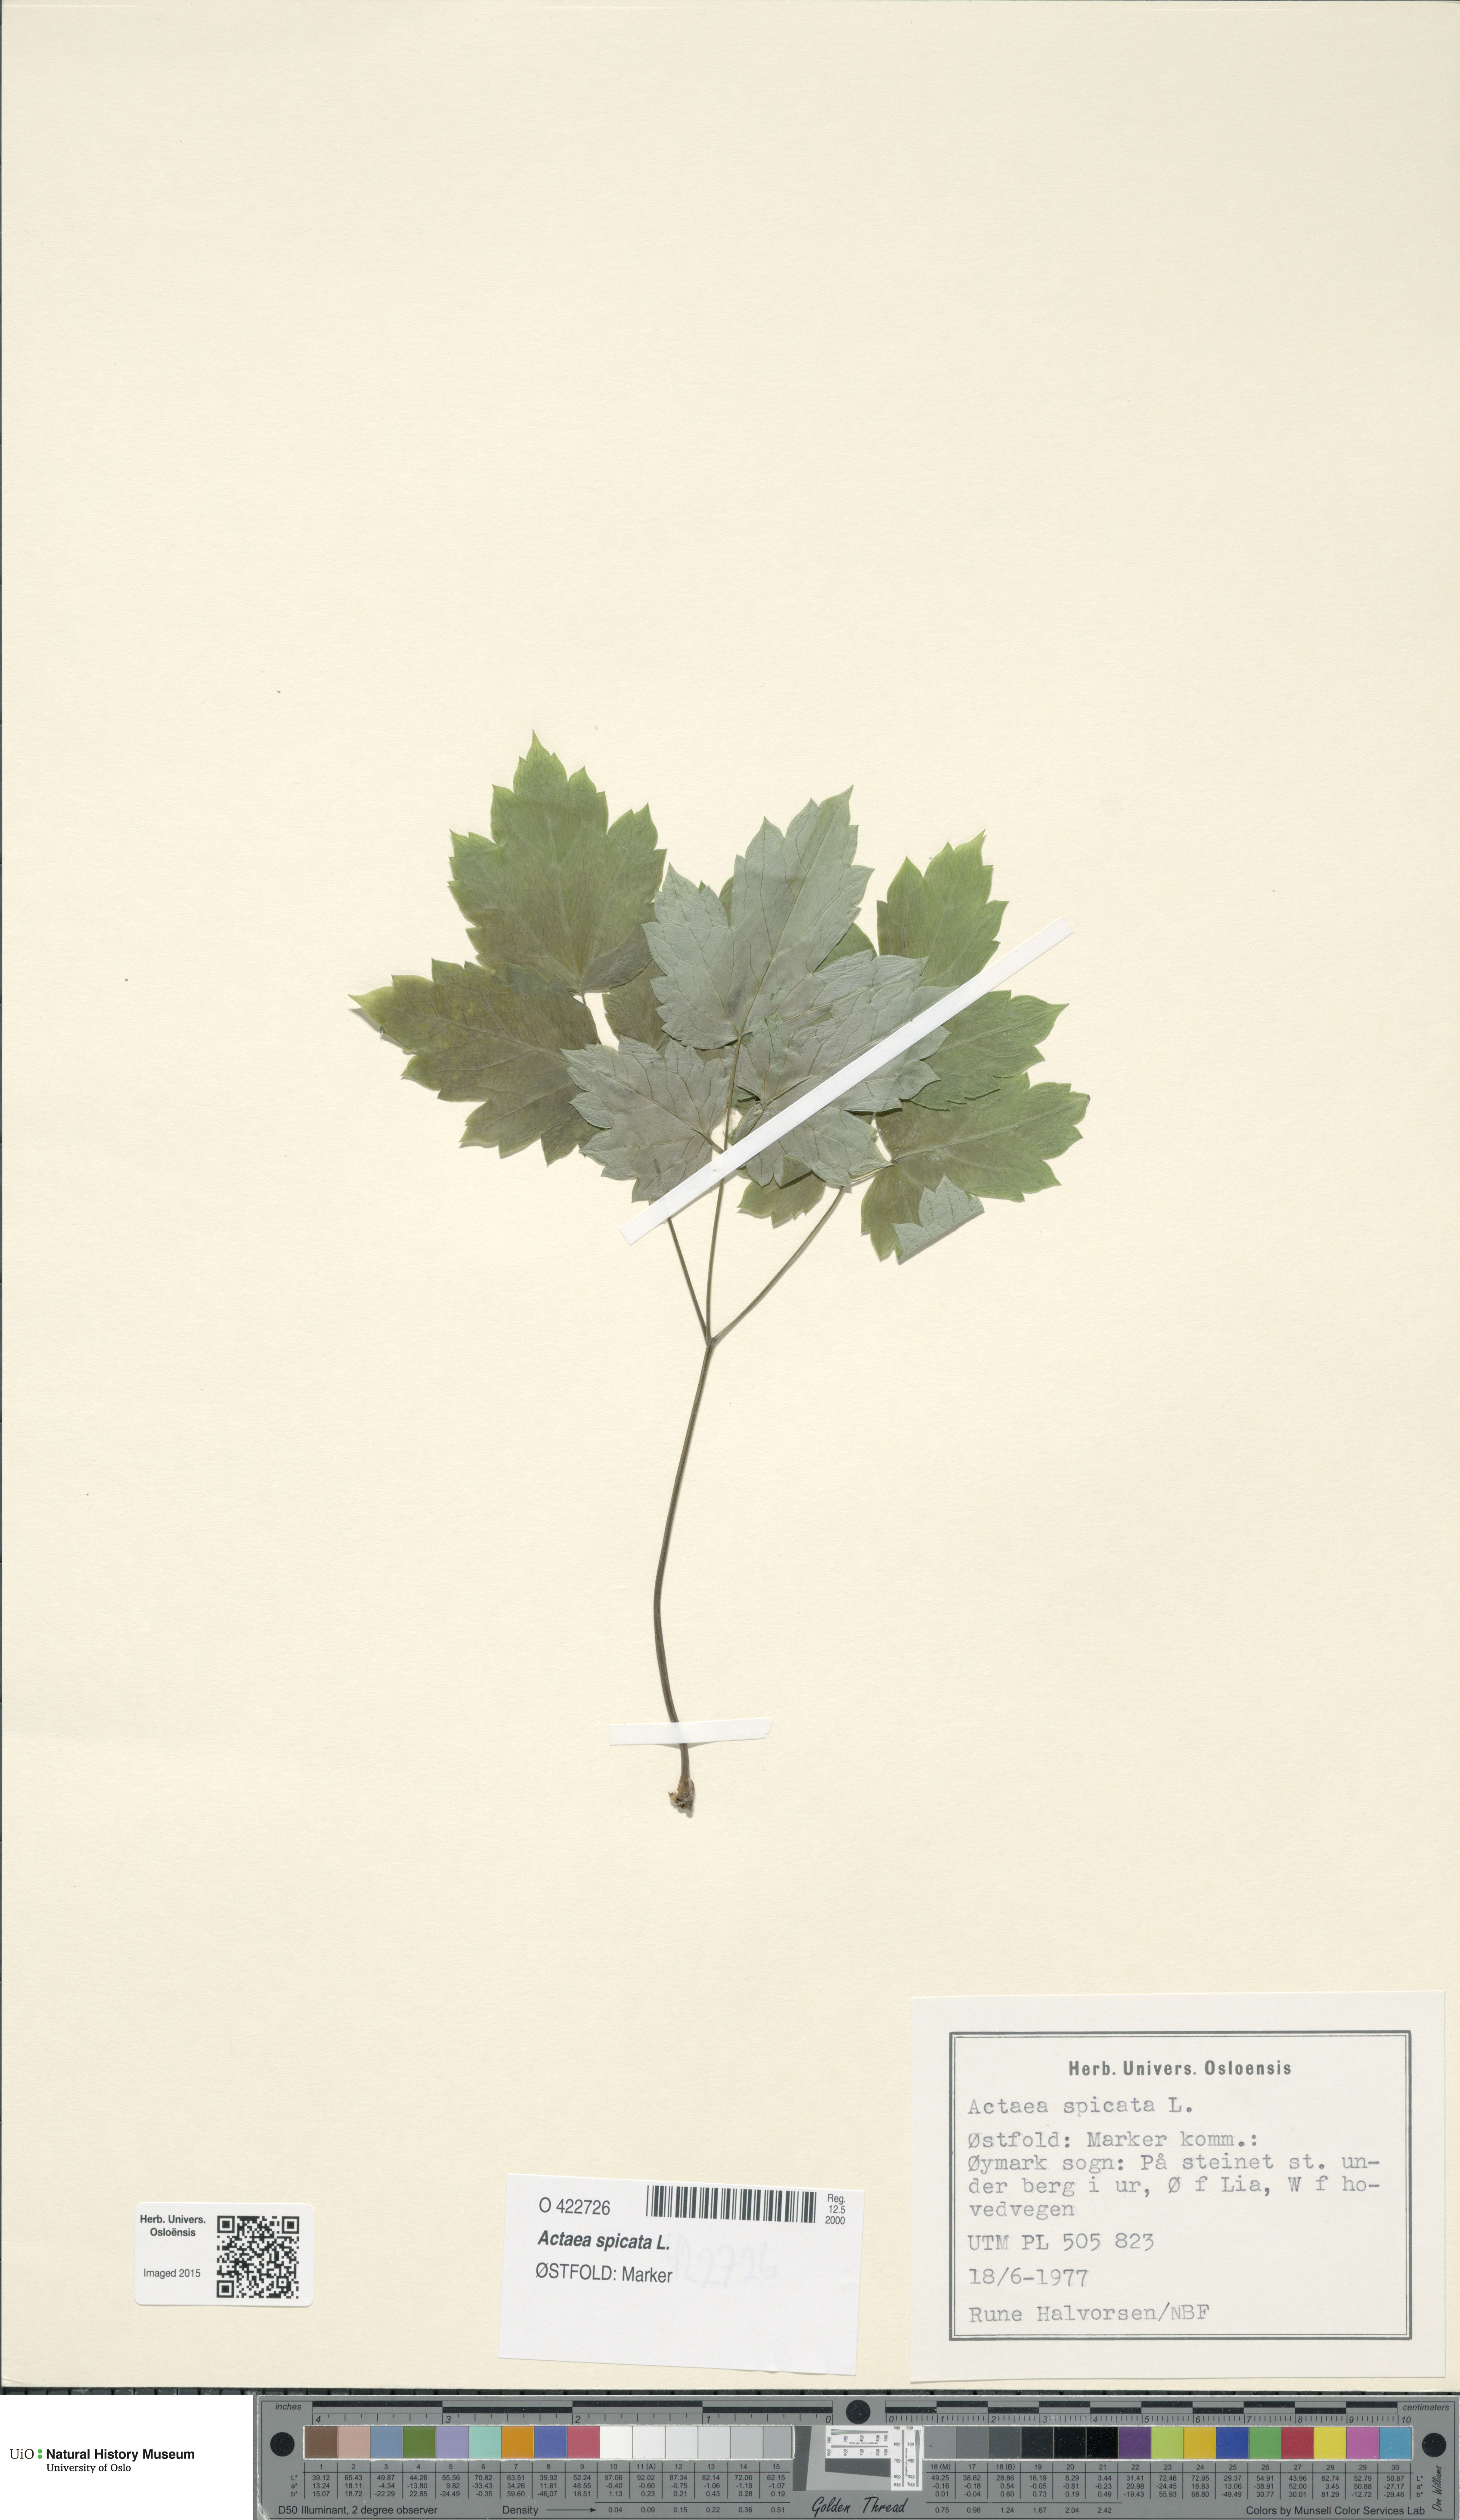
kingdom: Plantae
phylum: Tracheophyta
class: Magnoliopsida
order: Ranunculales
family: Ranunculaceae
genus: Actaea
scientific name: Actaea spicata
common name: Baneberry
